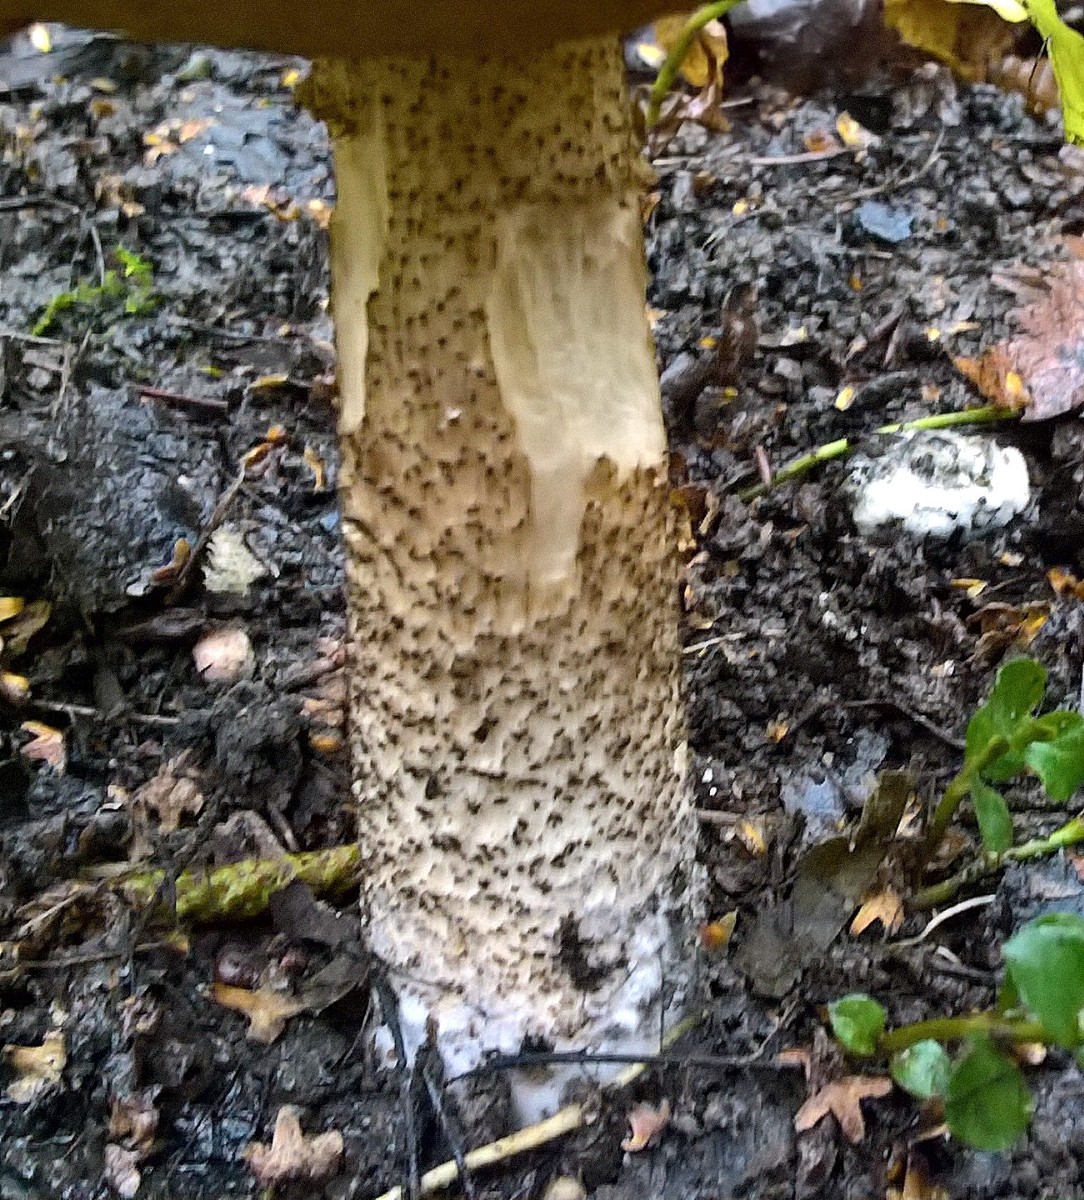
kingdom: Fungi
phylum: Basidiomycota
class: Agaricomycetes
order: Boletales
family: Boletaceae
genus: Leccinum
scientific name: Leccinum scabrum
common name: brun skælrørhat
